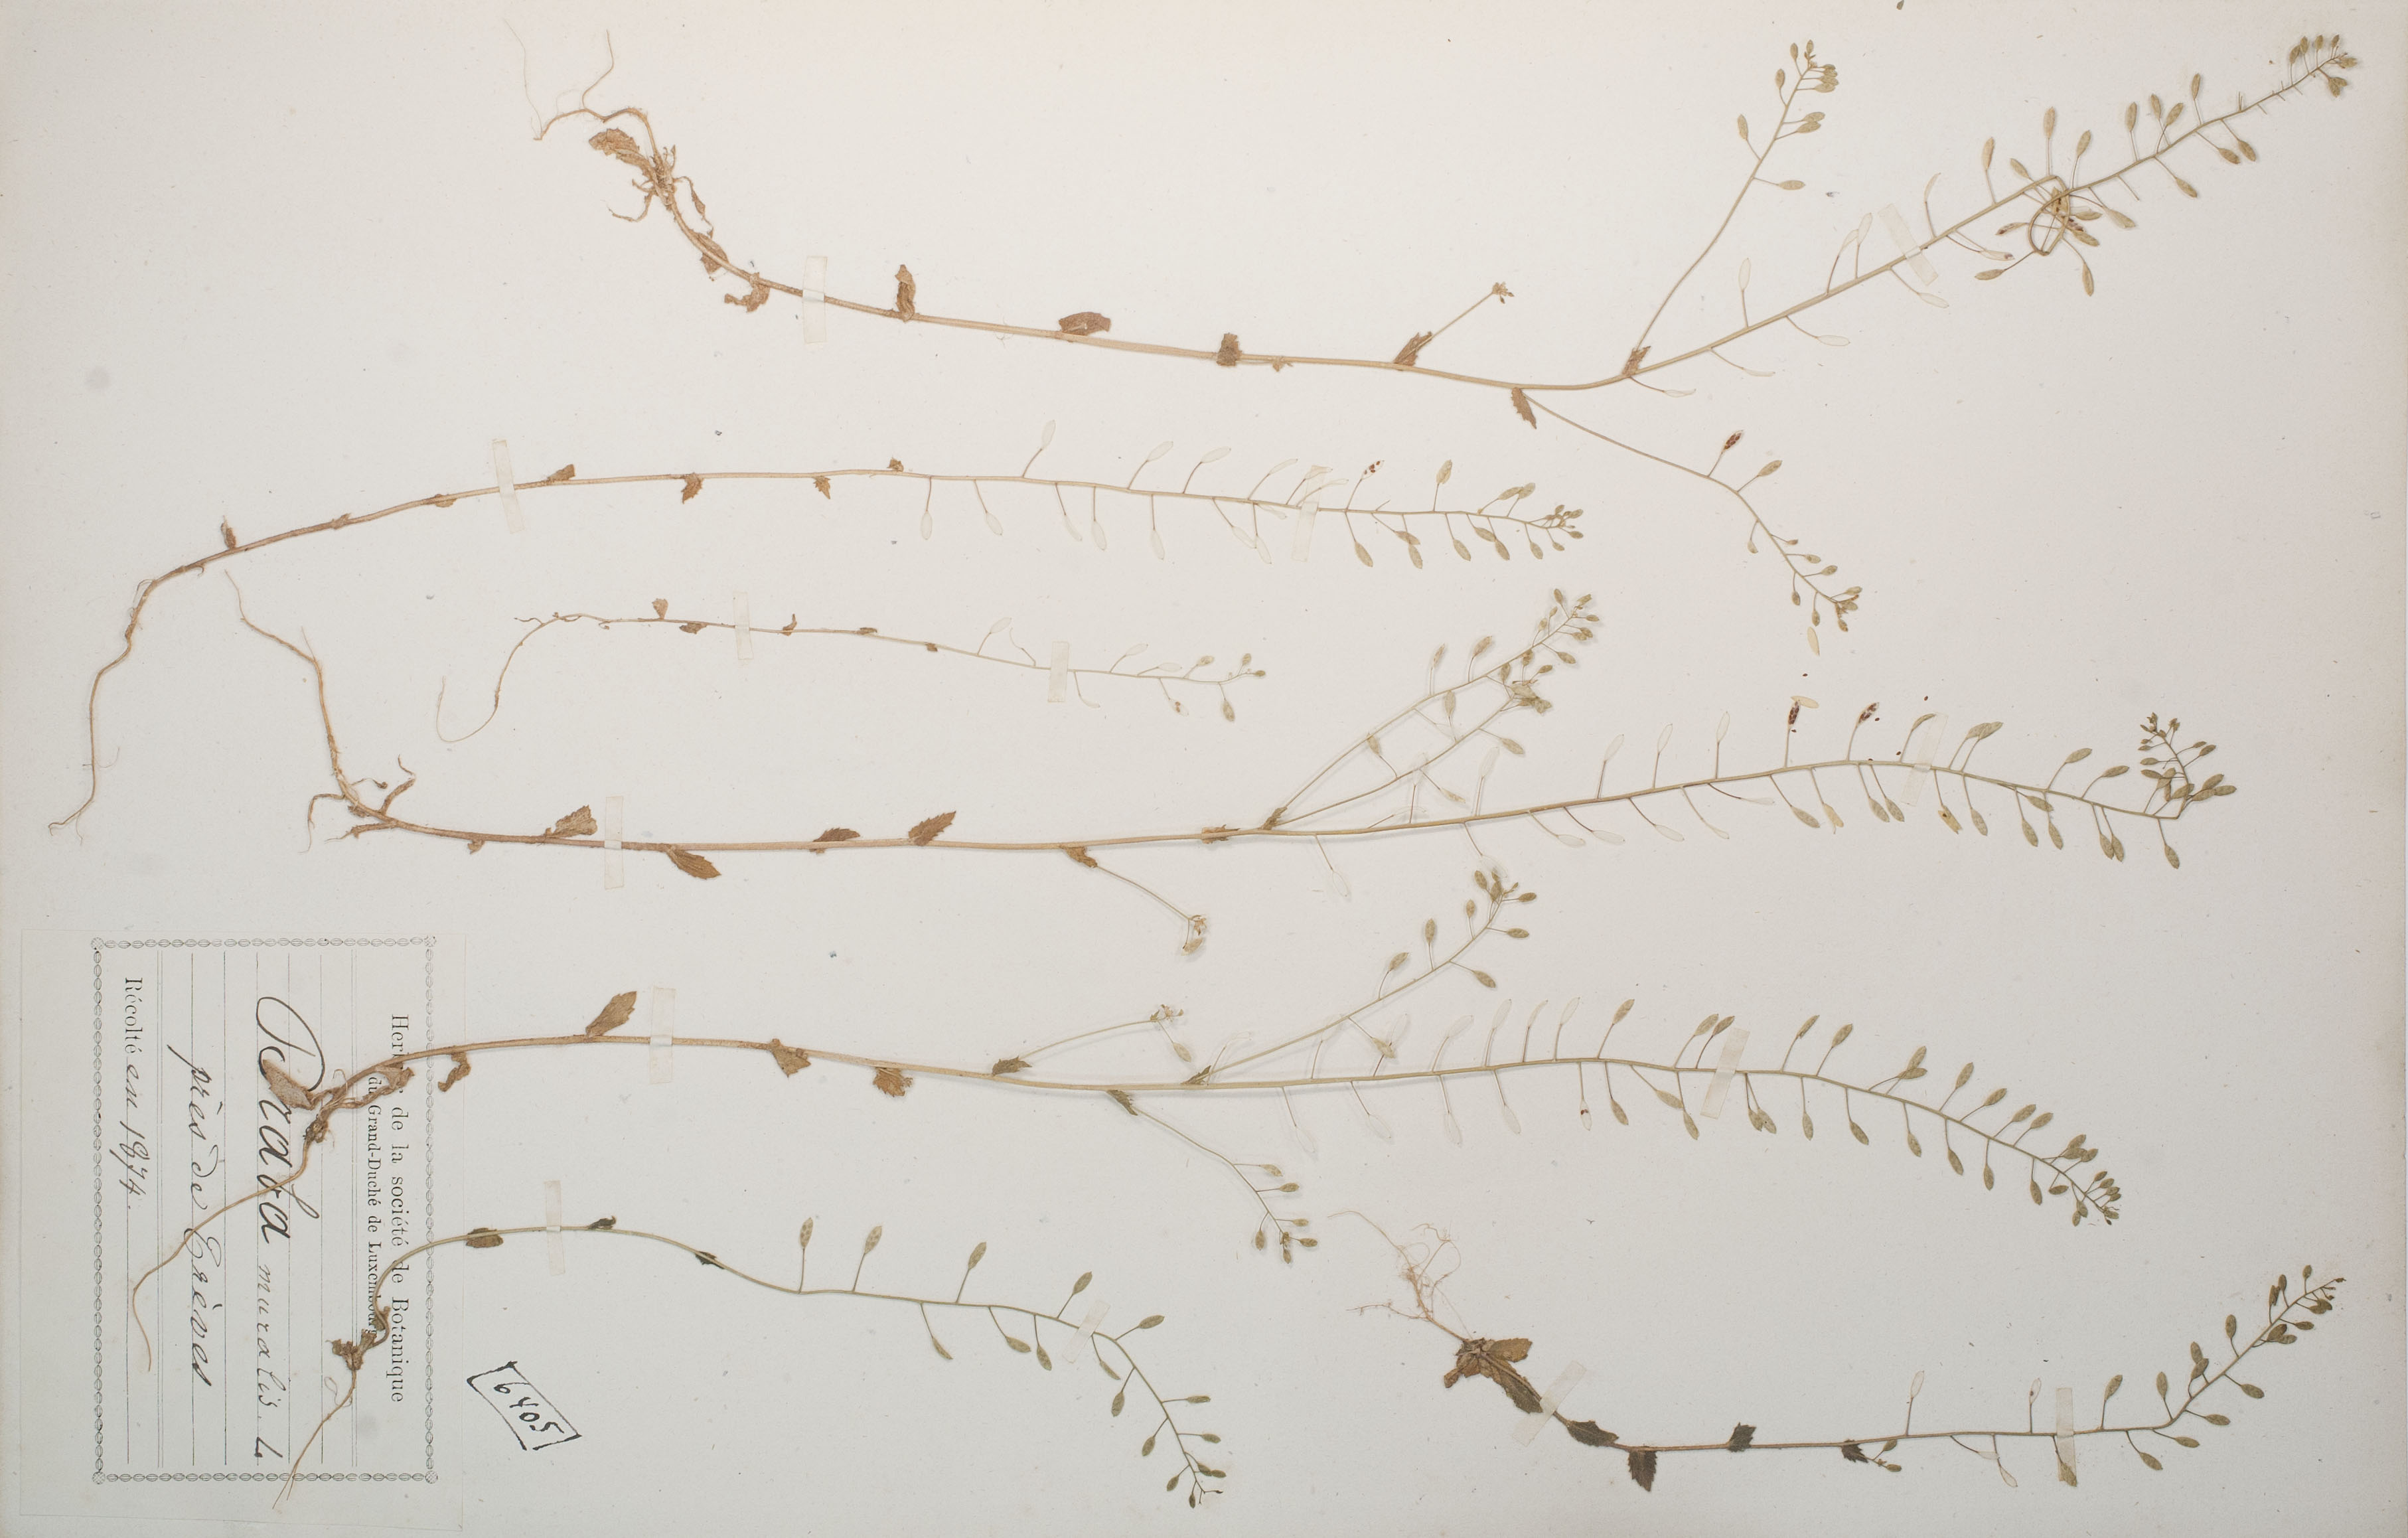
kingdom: Plantae
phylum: Tracheophyta
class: Magnoliopsida
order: Brassicales
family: Brassicaceae
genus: Drabella
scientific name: Drabella muralis
